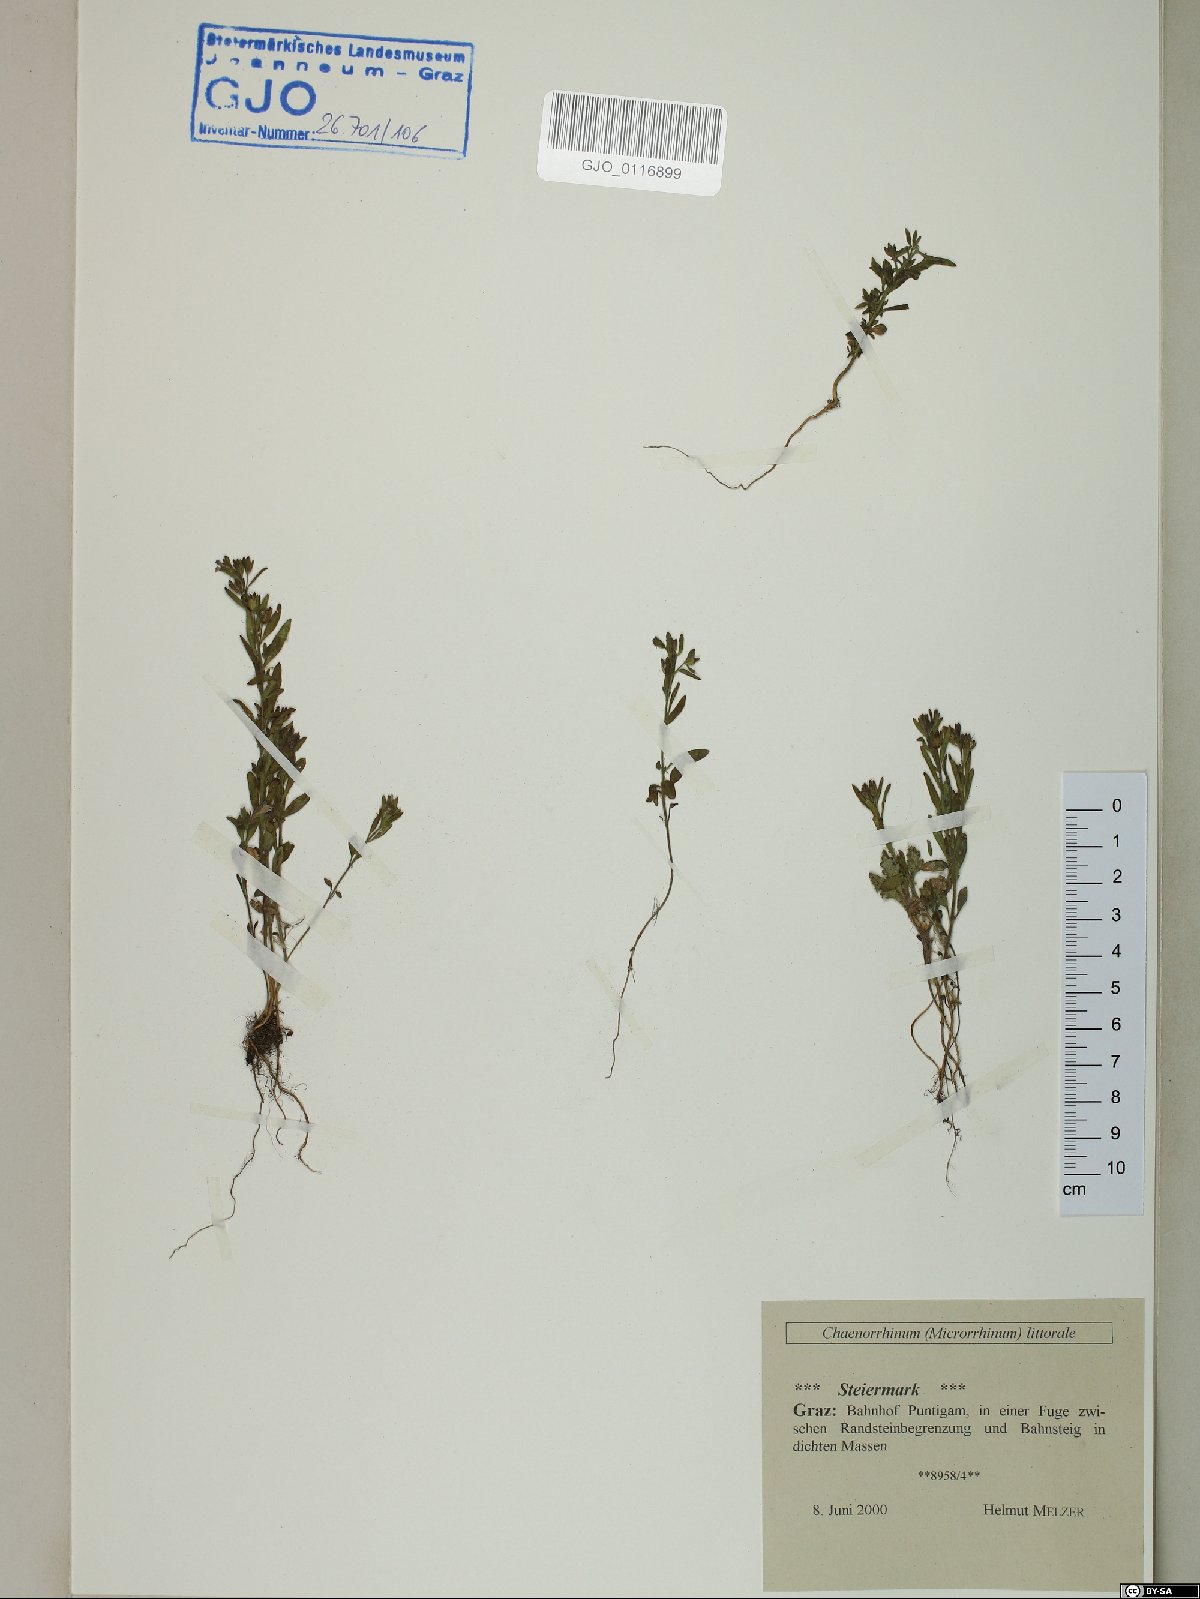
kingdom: Plantae
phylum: Tracheophyta
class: Magnoliopsida
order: Lamiales
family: Plantaginaceae
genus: Chaenorhinum
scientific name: Chaenorhinum litorale
